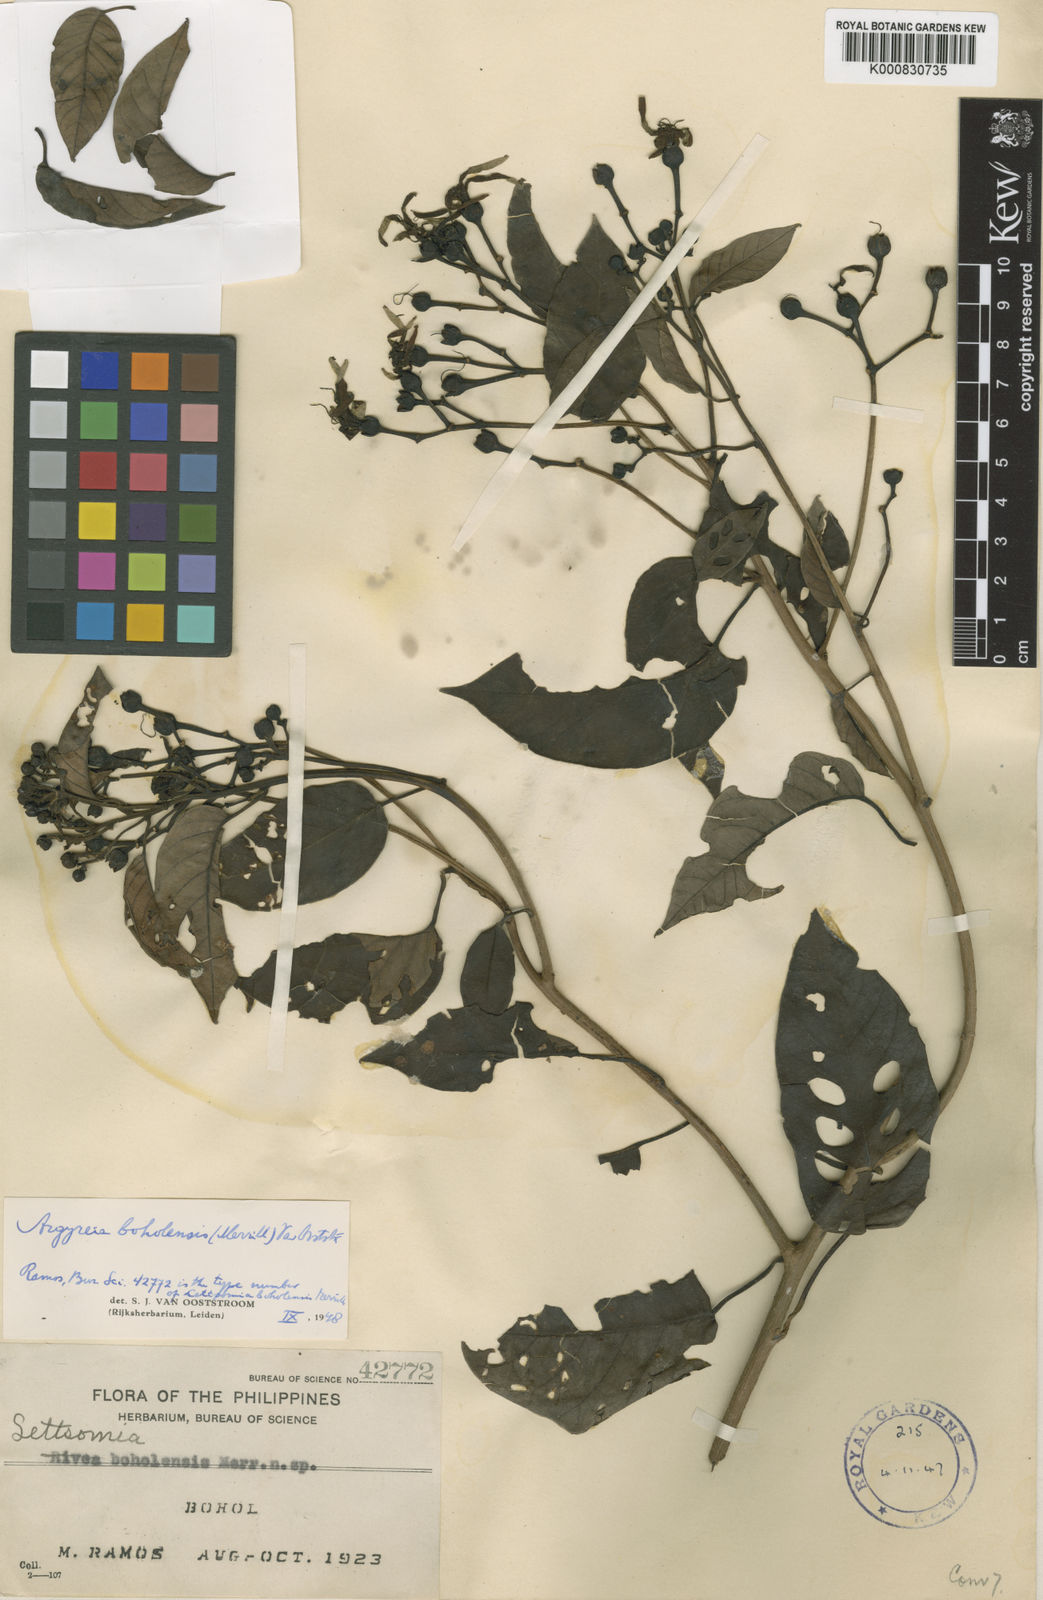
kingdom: Plantae
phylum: Tracheophyta
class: Magnoliopsida
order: Solanales
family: Convolvulaceae
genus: Argyreia
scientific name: Argyreia boholensis
